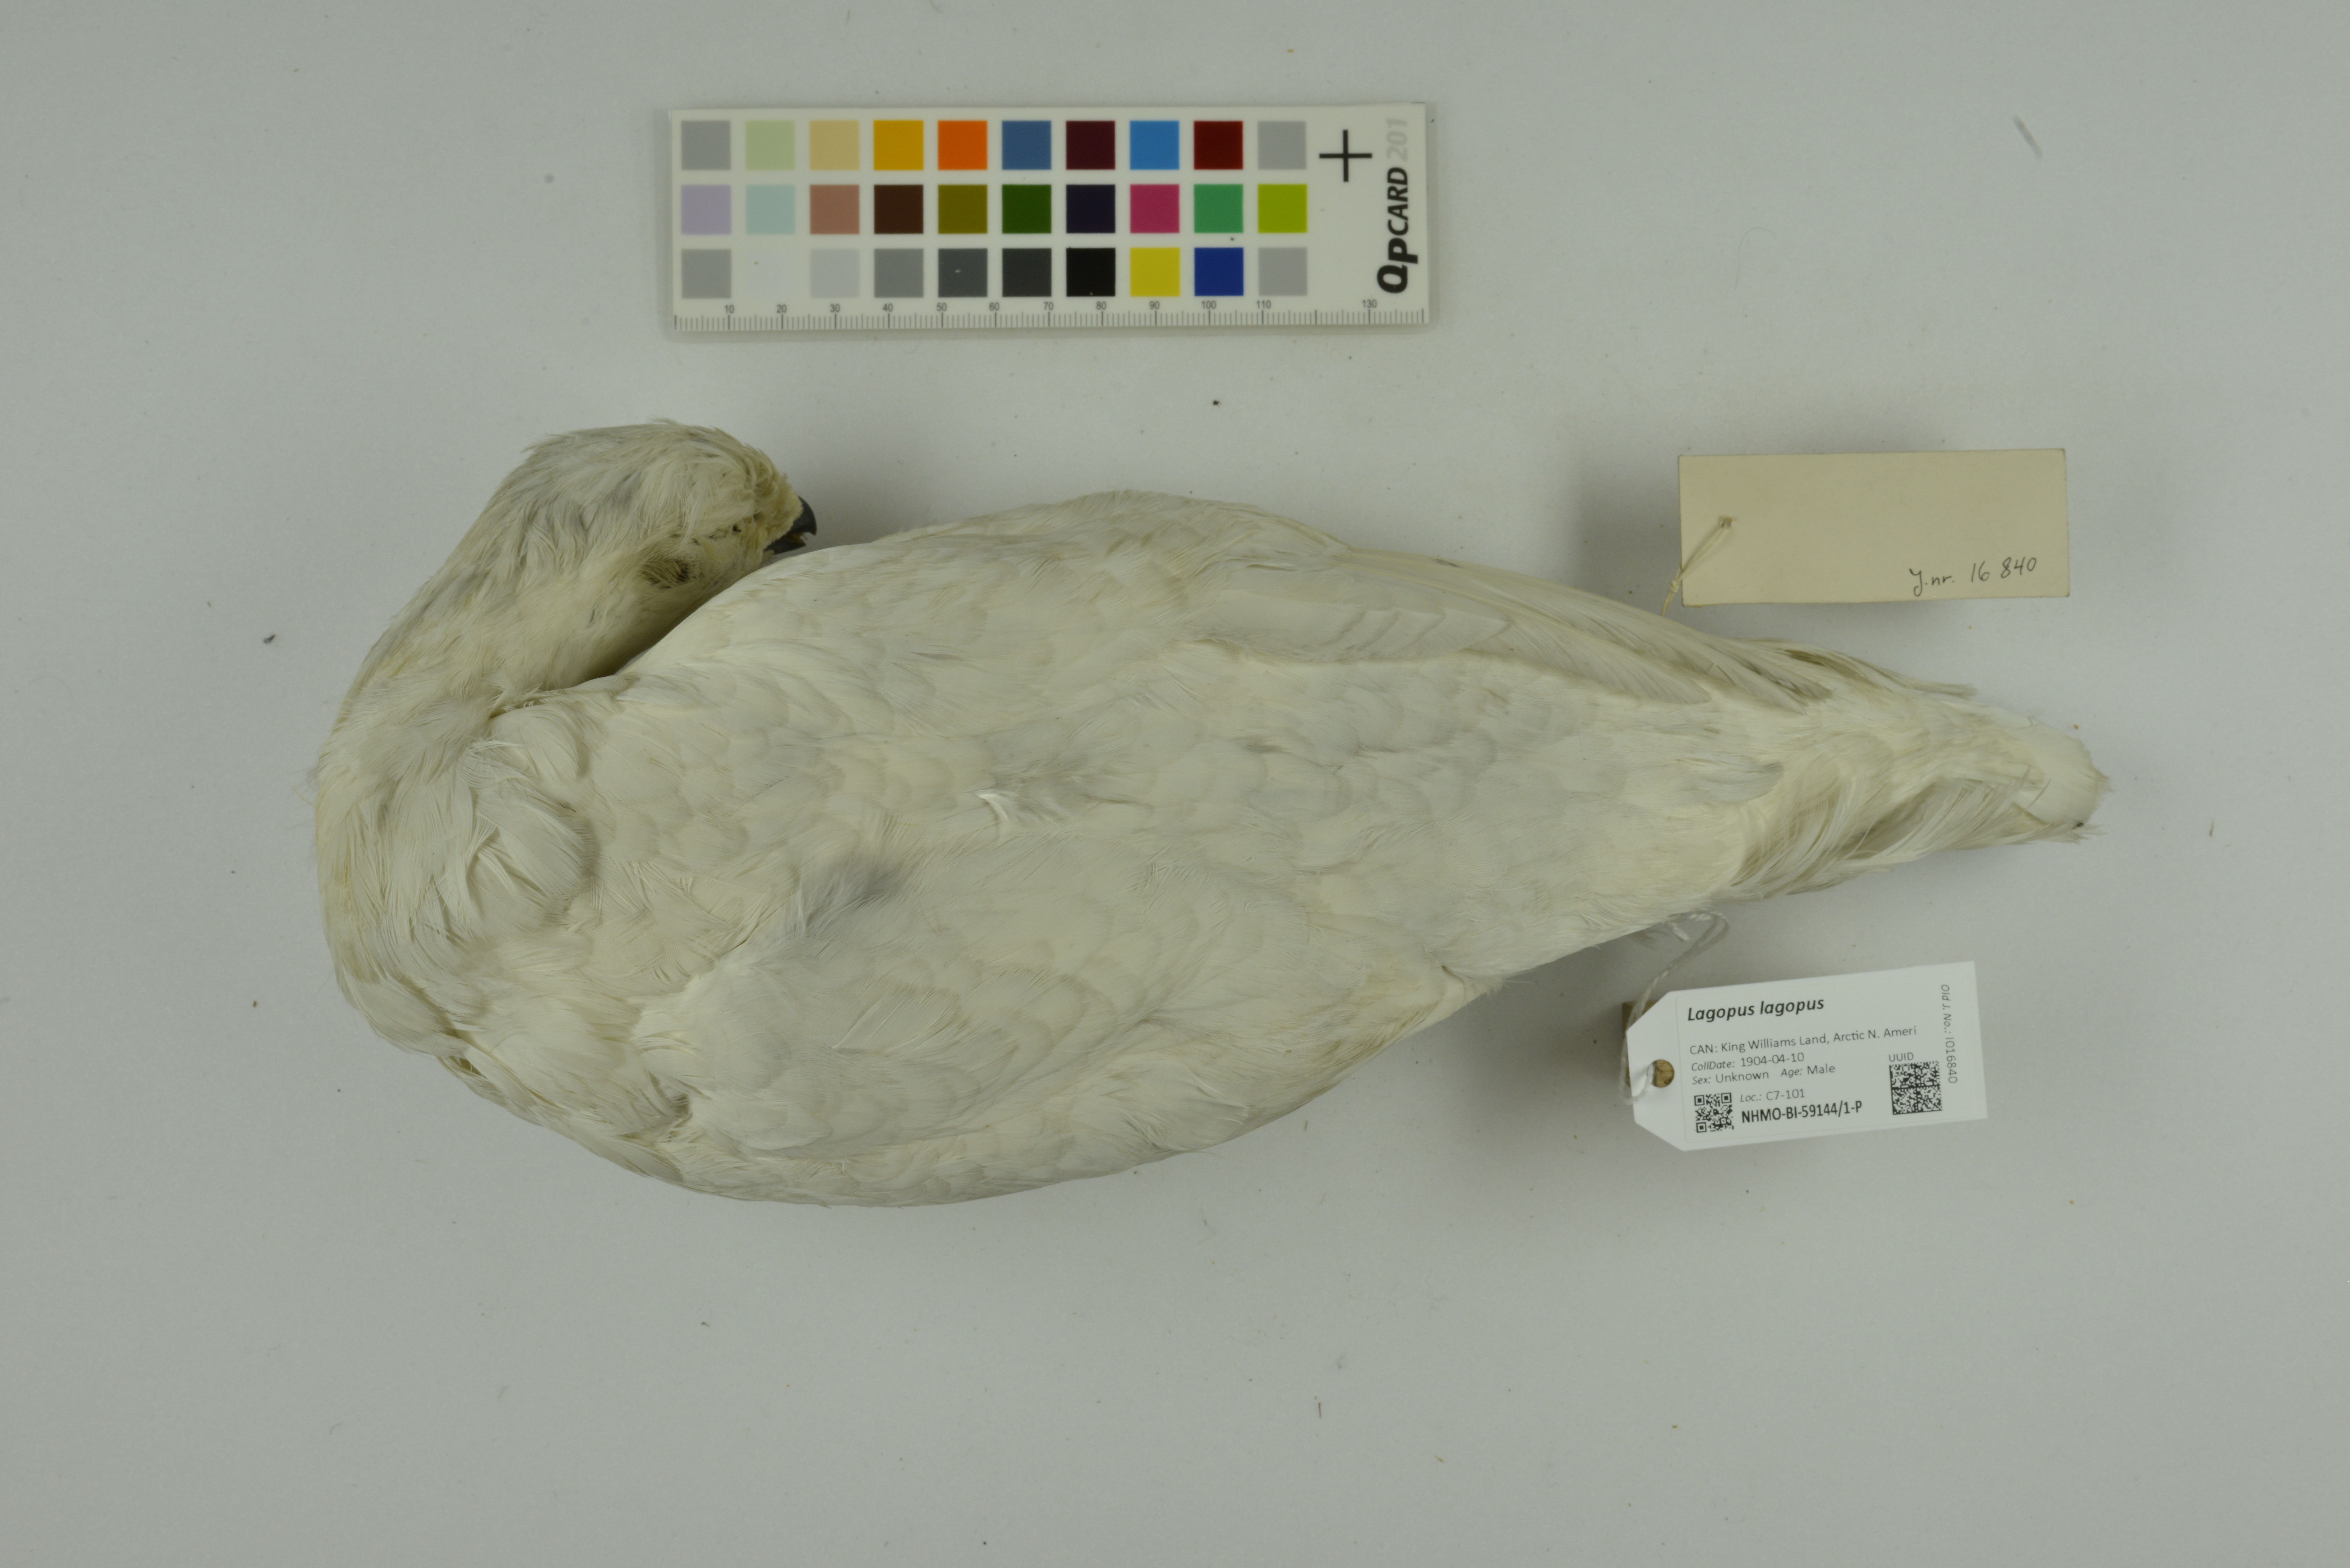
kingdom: Animalia
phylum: Chordata
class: Aves
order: Galliformes
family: Phasianidae
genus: Lagopus
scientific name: Lagopus lagopus
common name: Willow ptarmigan
